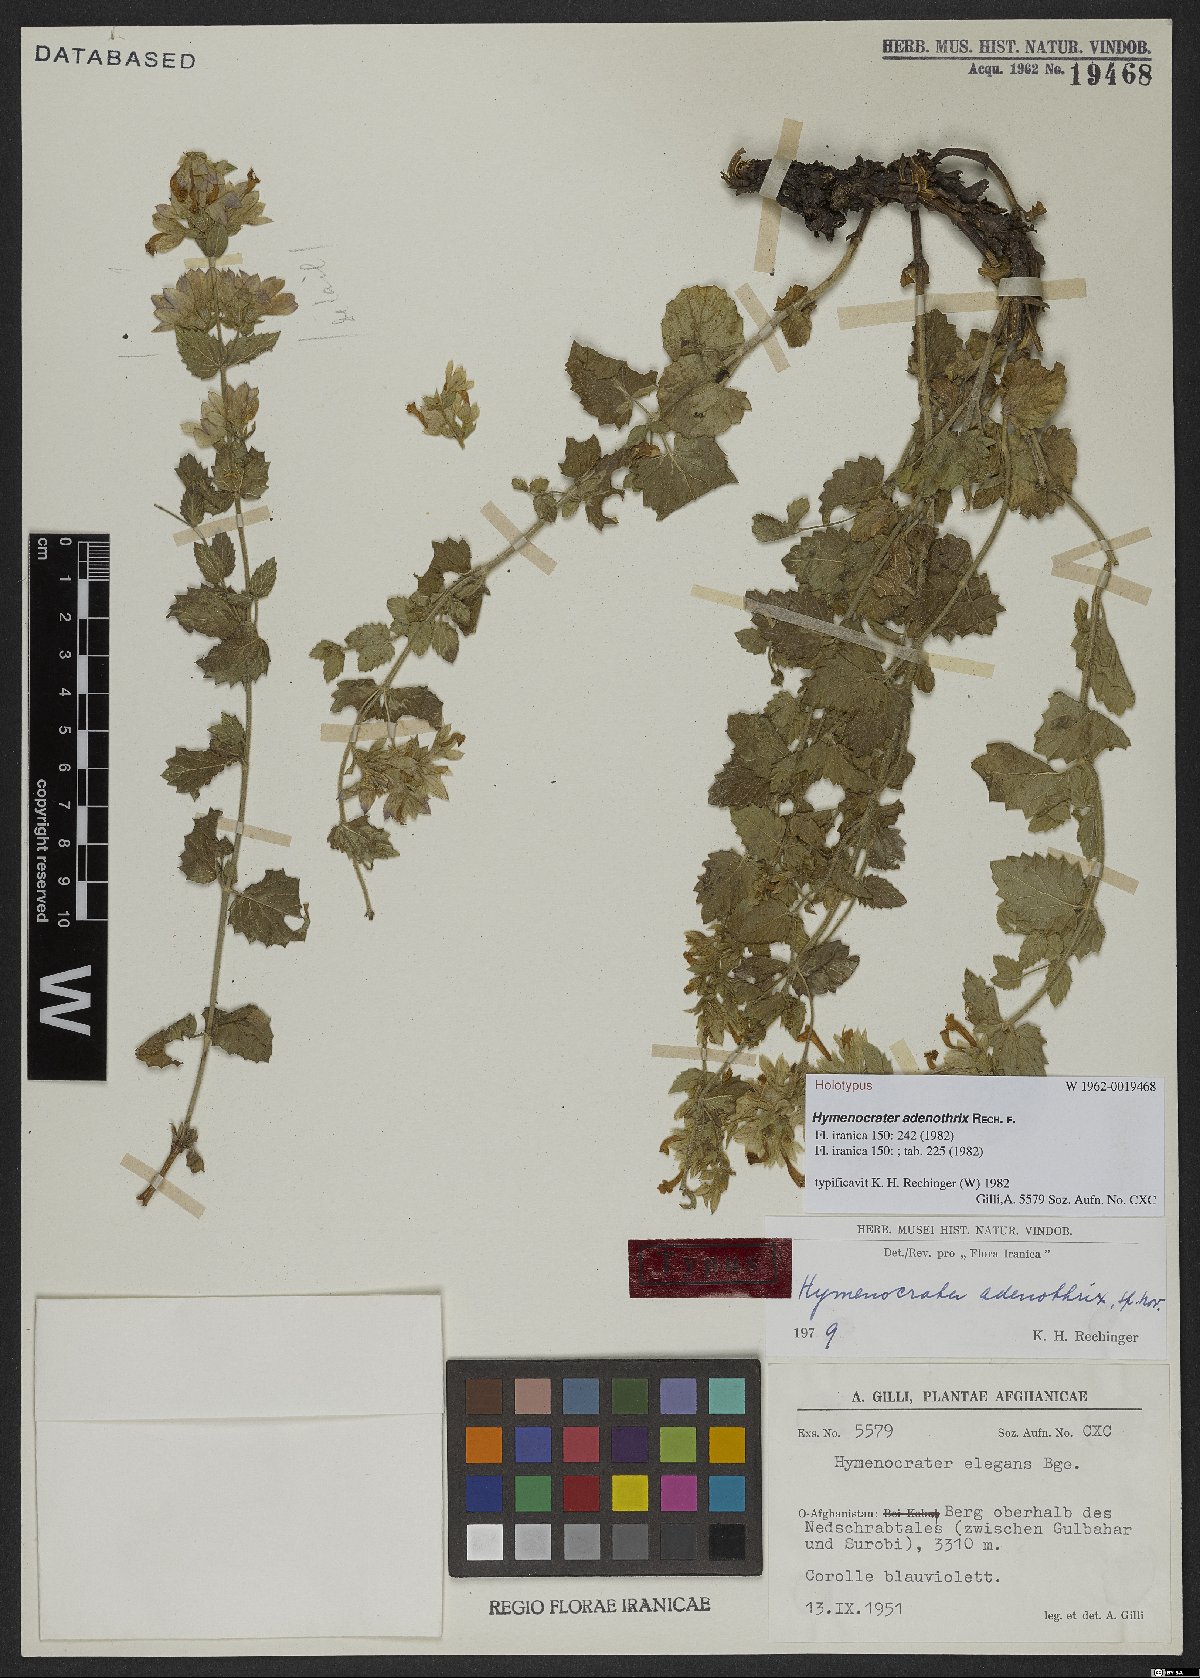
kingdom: Plantae
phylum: Tracheophyta
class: Magnoliopsida
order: Lamiales
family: Lamiaceae
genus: Nepeta
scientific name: Nepeta adenothrix
